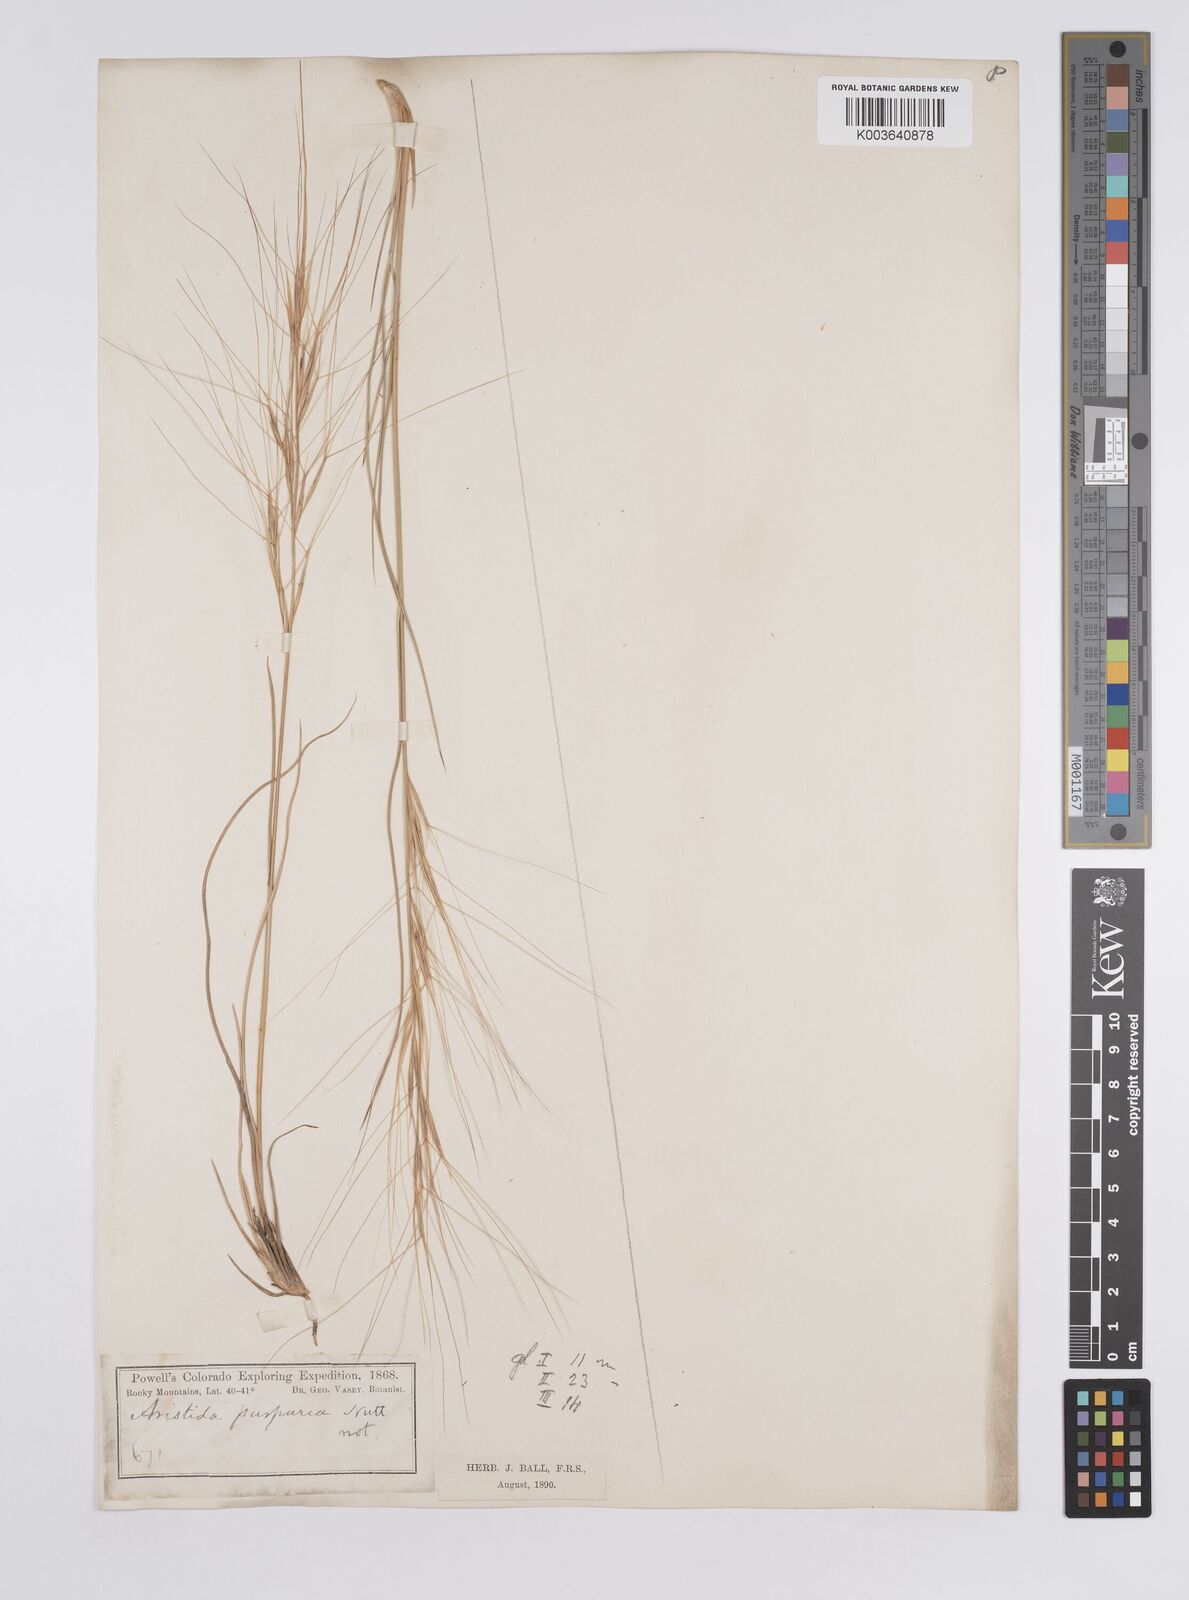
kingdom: Plantae
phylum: Tracheophyta
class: Liliopsida
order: Poales
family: Poaceae
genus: Aristida
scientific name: Aristida purpurea
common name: Purple threeawn
